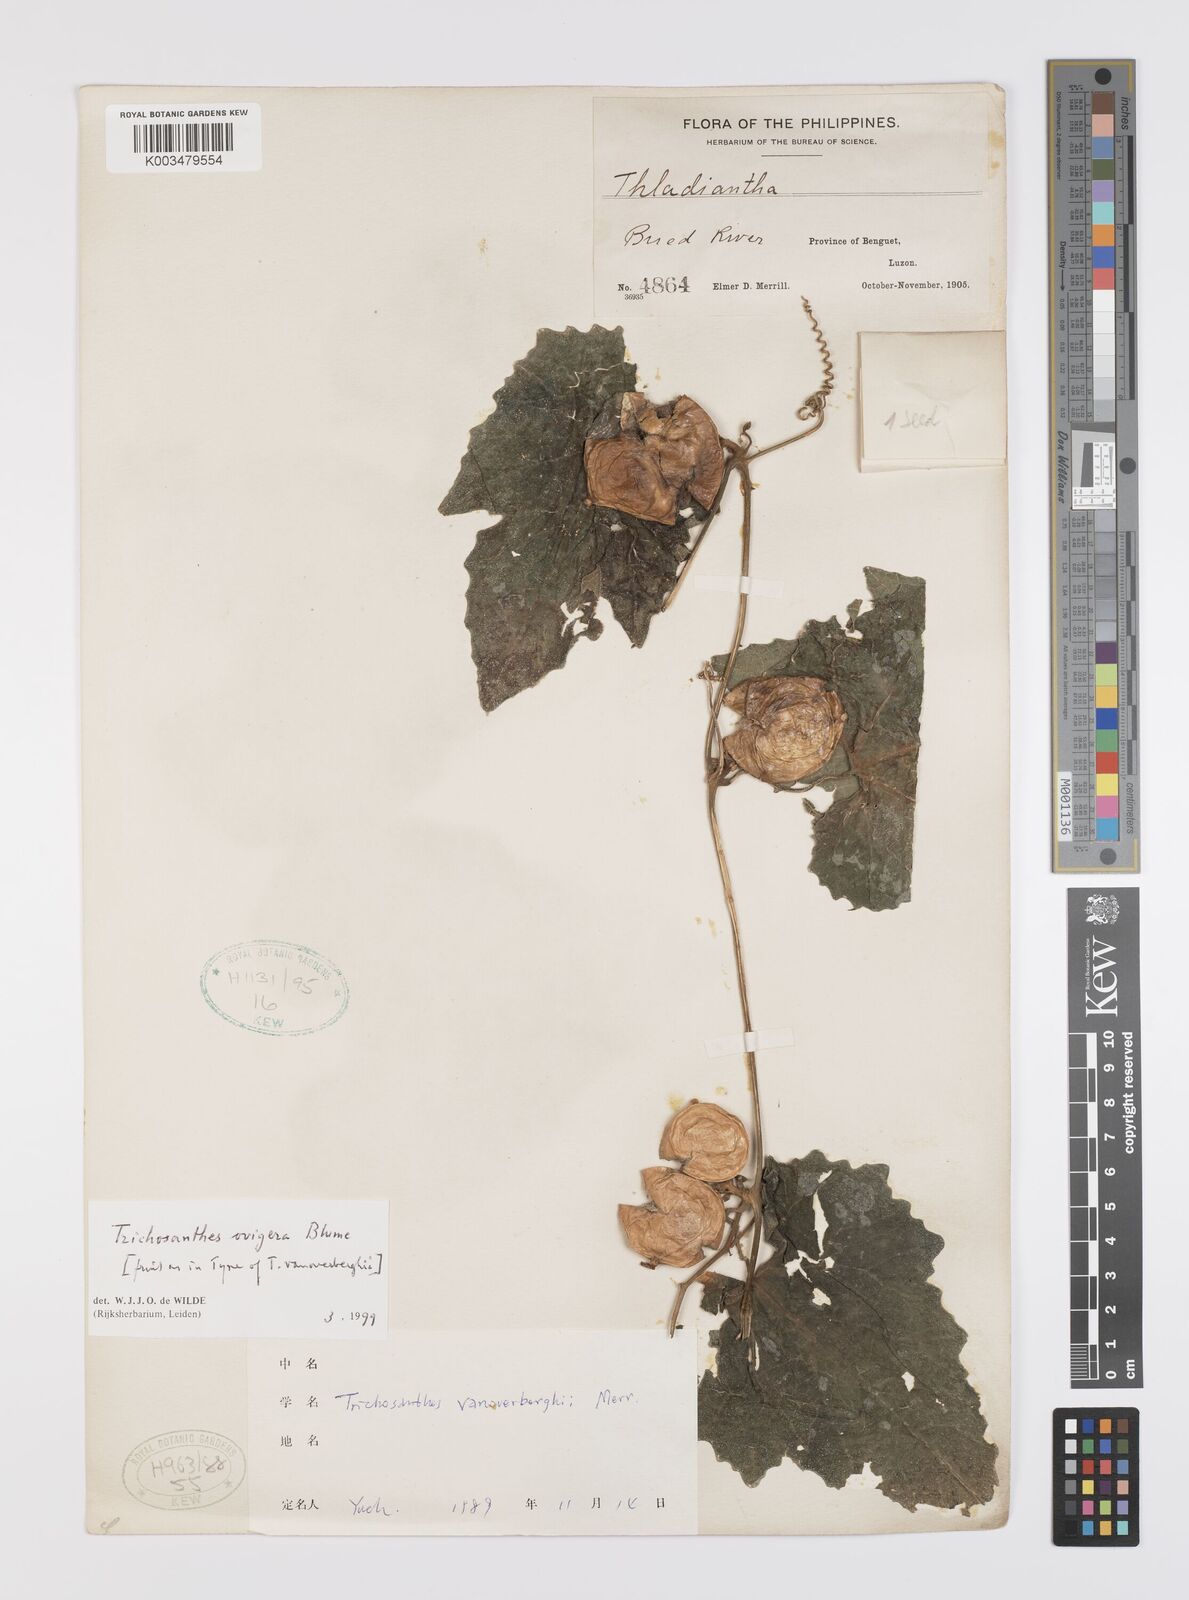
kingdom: Plantae
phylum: Tracheophyta
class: Magnoliopsida
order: Cucurbitales
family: Cucurbitaceae
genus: Trichosanthes
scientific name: Trichosanthes ovigera
